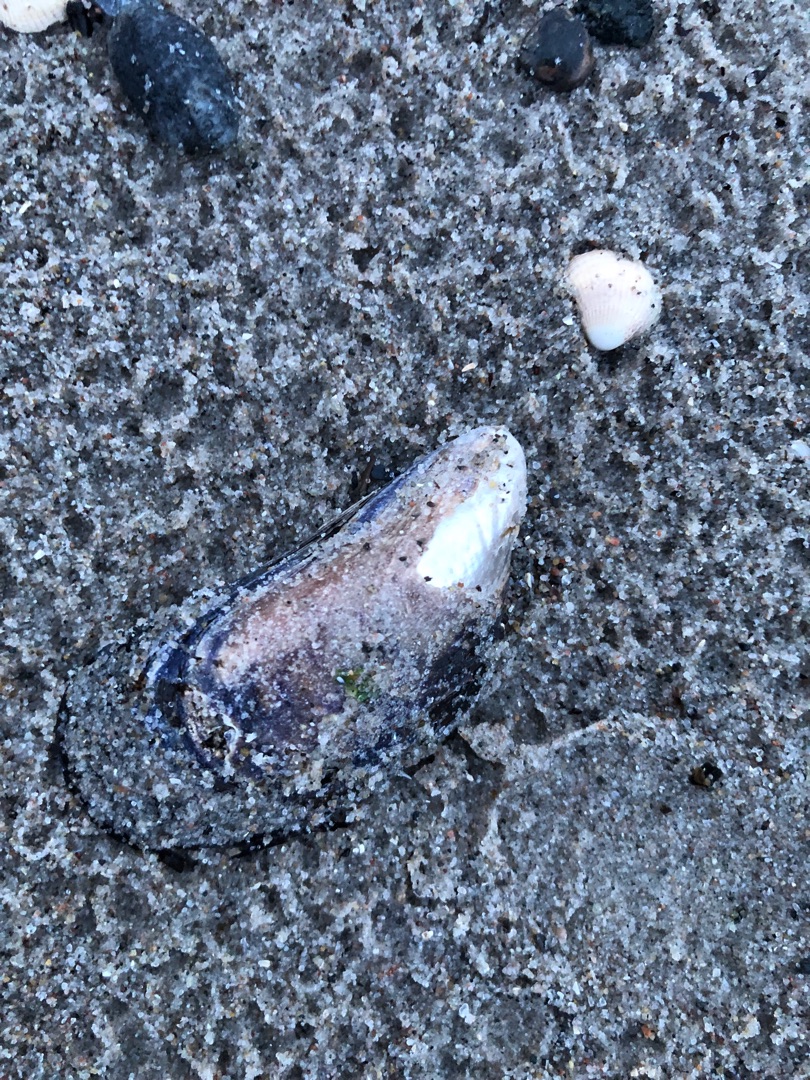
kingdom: Animalia
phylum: Mollusca
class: Bivalvia
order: Mytilida
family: Mytilidae
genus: Mytilus
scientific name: Mytilus edulis
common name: Blåmusling
